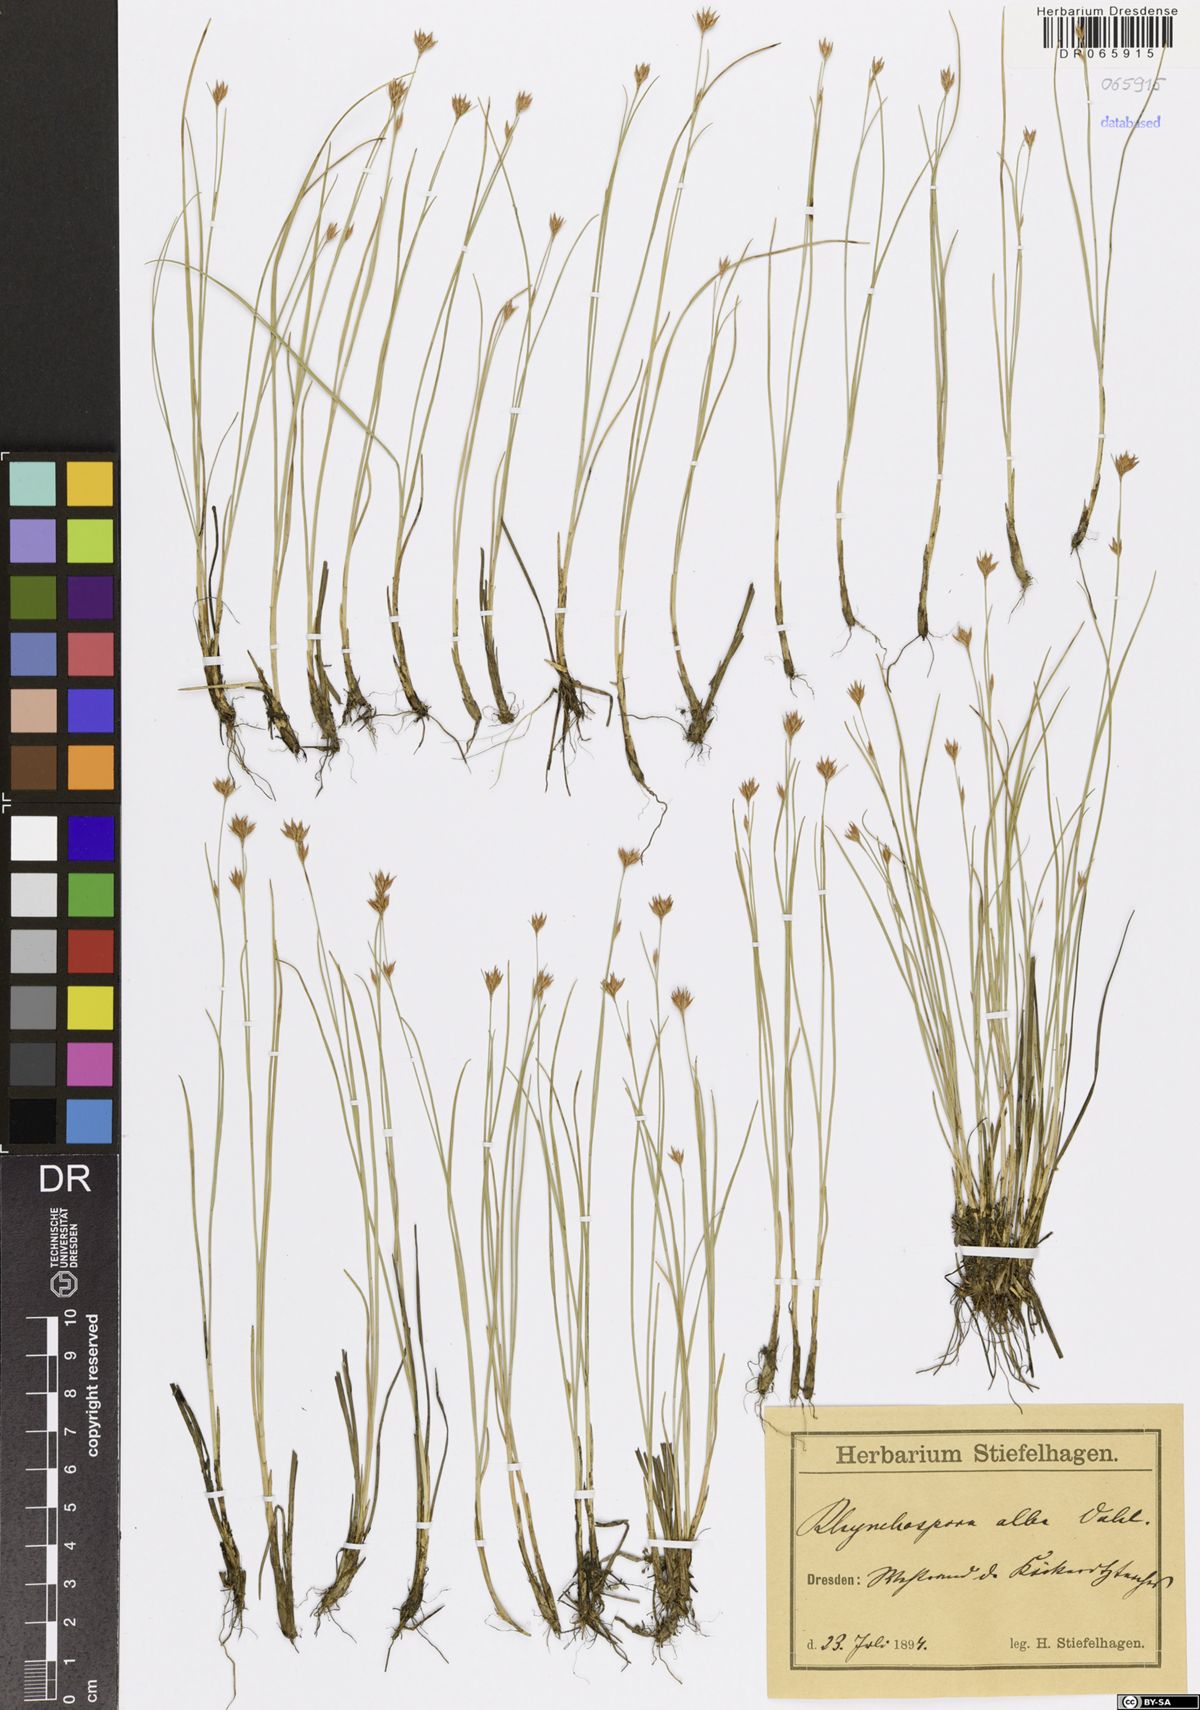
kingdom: Plantae
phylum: Tracheophyta
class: Liliopsida
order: Poales
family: Cyperaceae
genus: Rhynchospora
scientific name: Rhynchospora alba
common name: White beak-sedge
